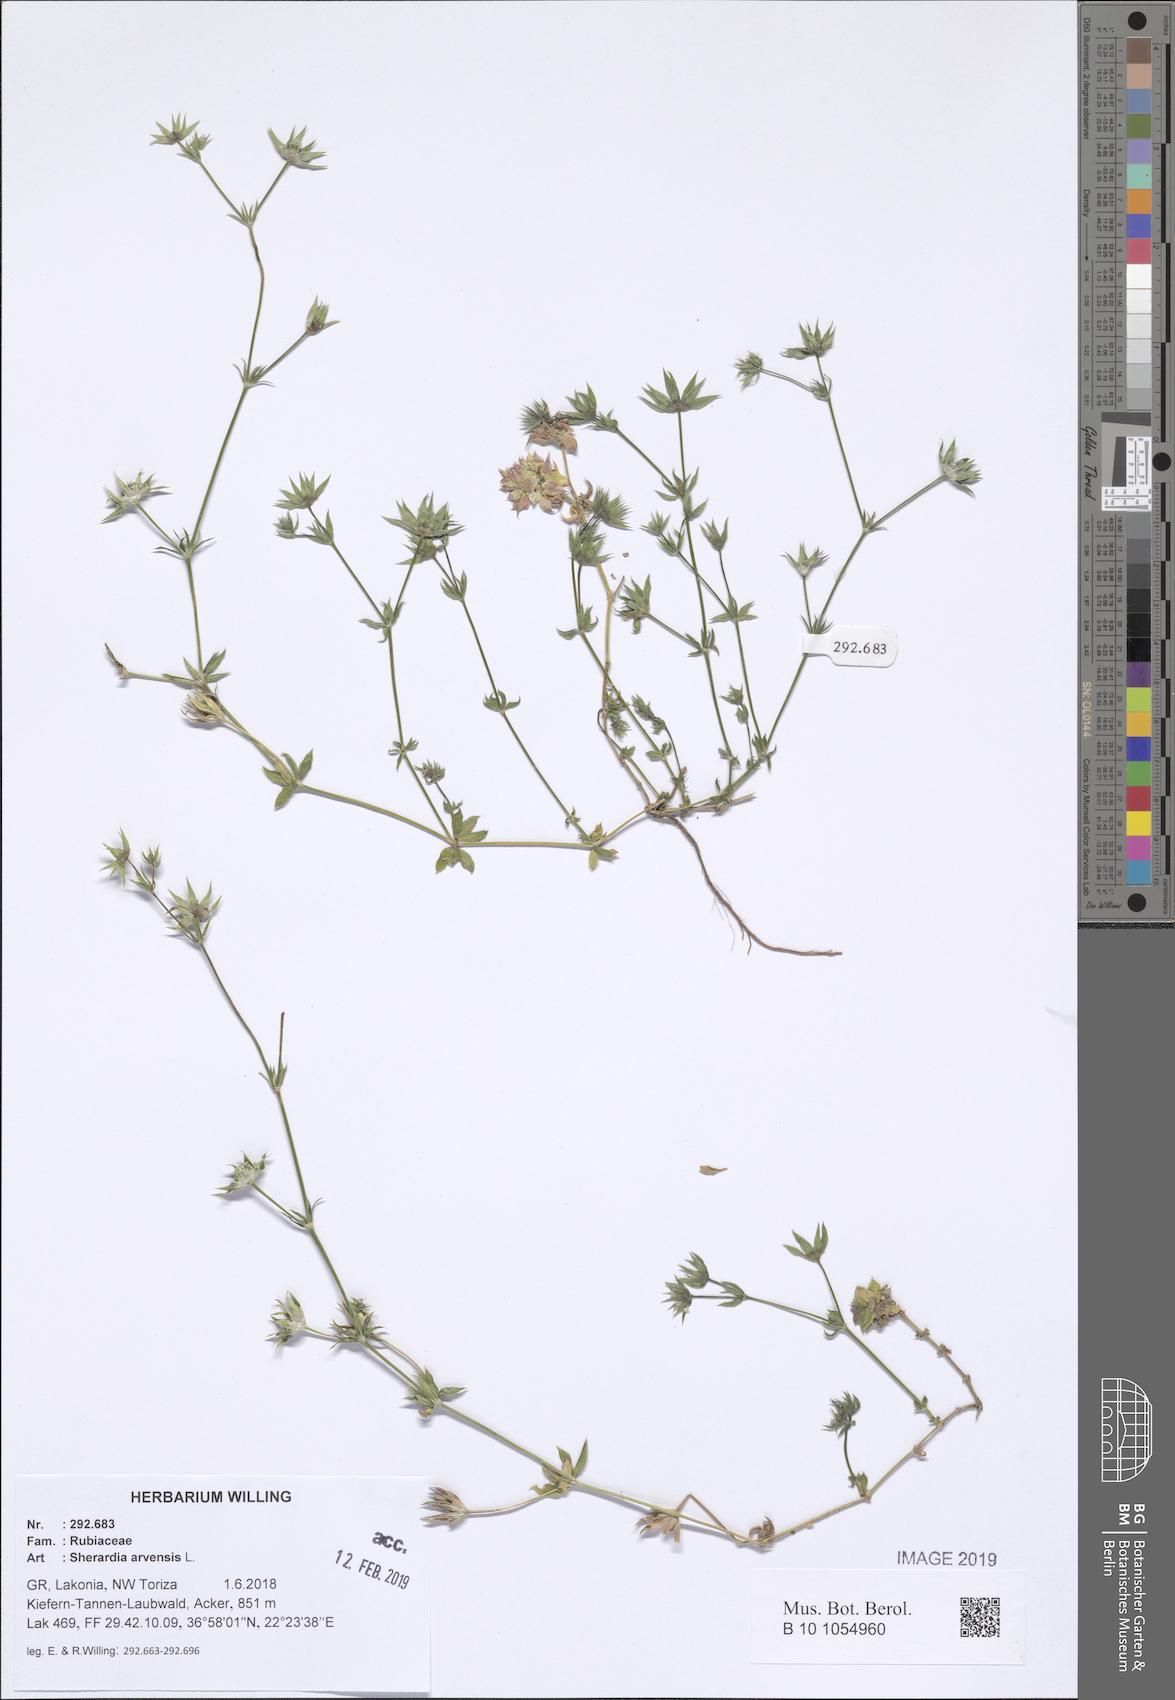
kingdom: Plantae
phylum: Tracheophyta
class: Magnoliopsida
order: Gentianales
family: Rubiaceae
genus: Sherardia
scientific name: Sherardia arvensis
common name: Field madder
